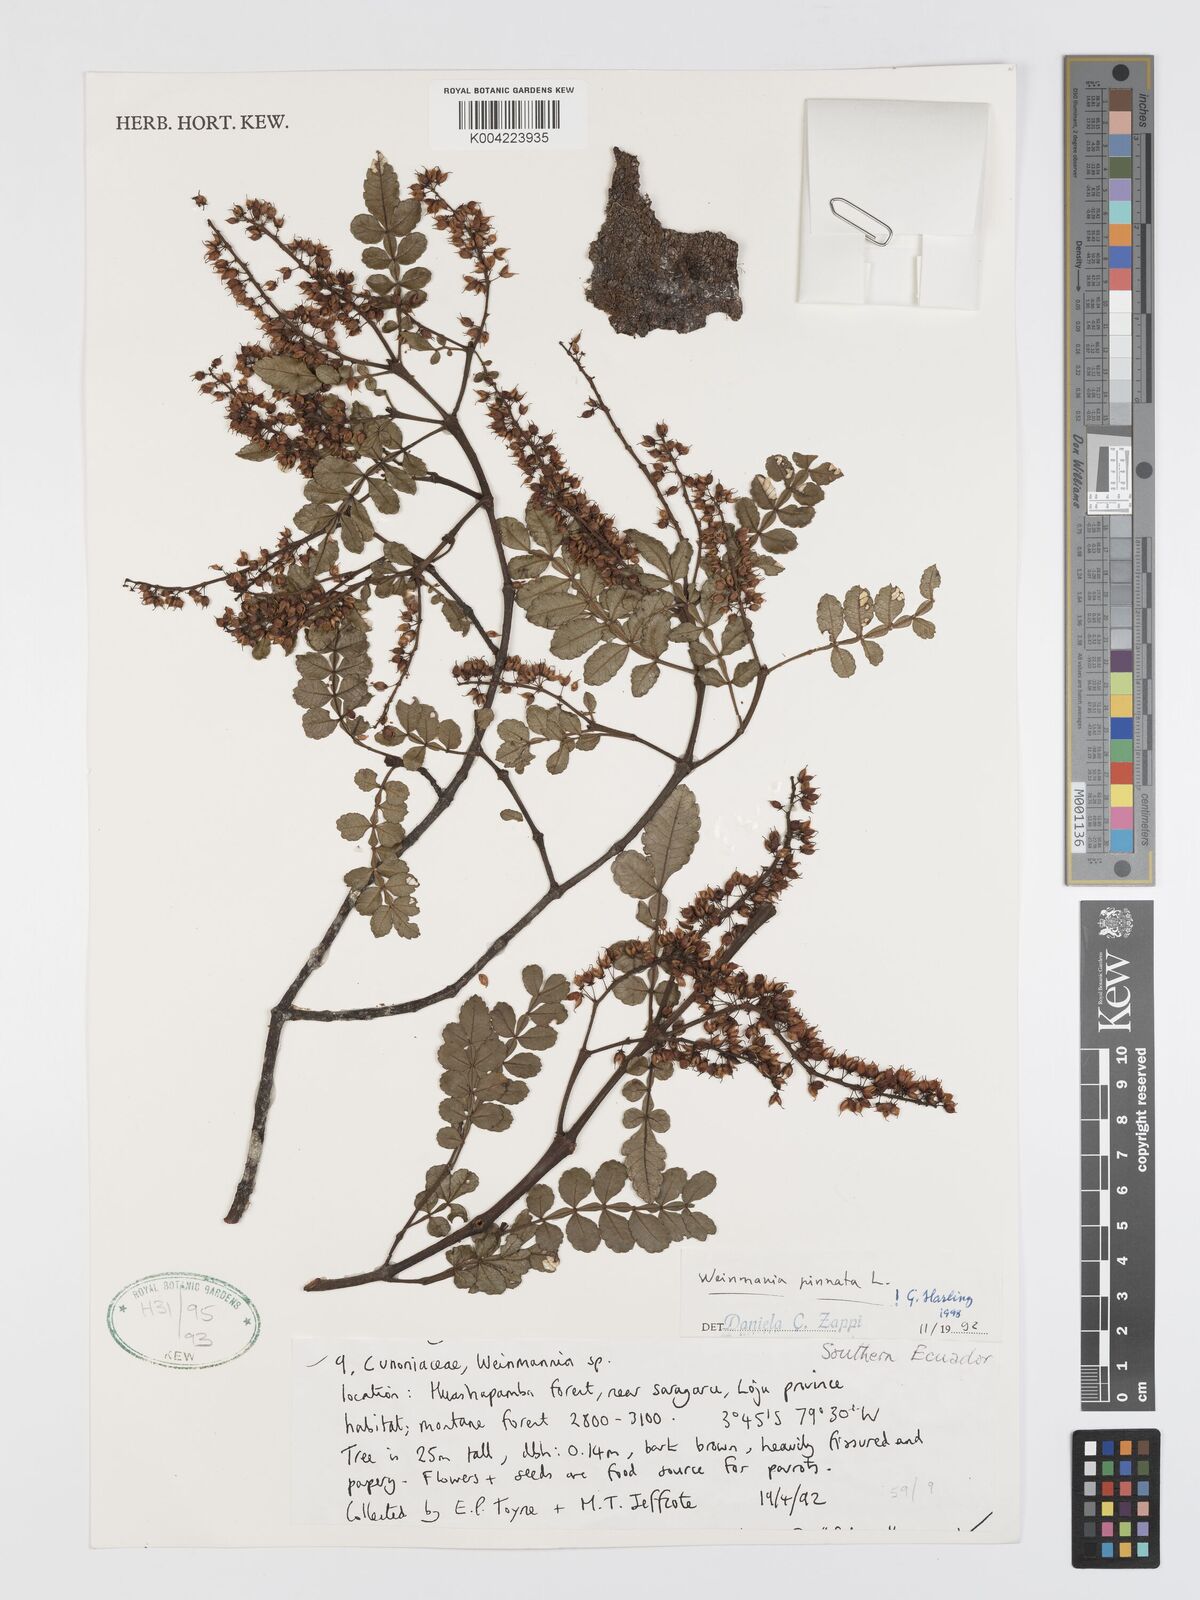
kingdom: Plantae
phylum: Tracheophyta
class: Magnoliopsida
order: Oxalidales
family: Cunoniaceae
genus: Weinmannia
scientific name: Weinmannia pinnata
